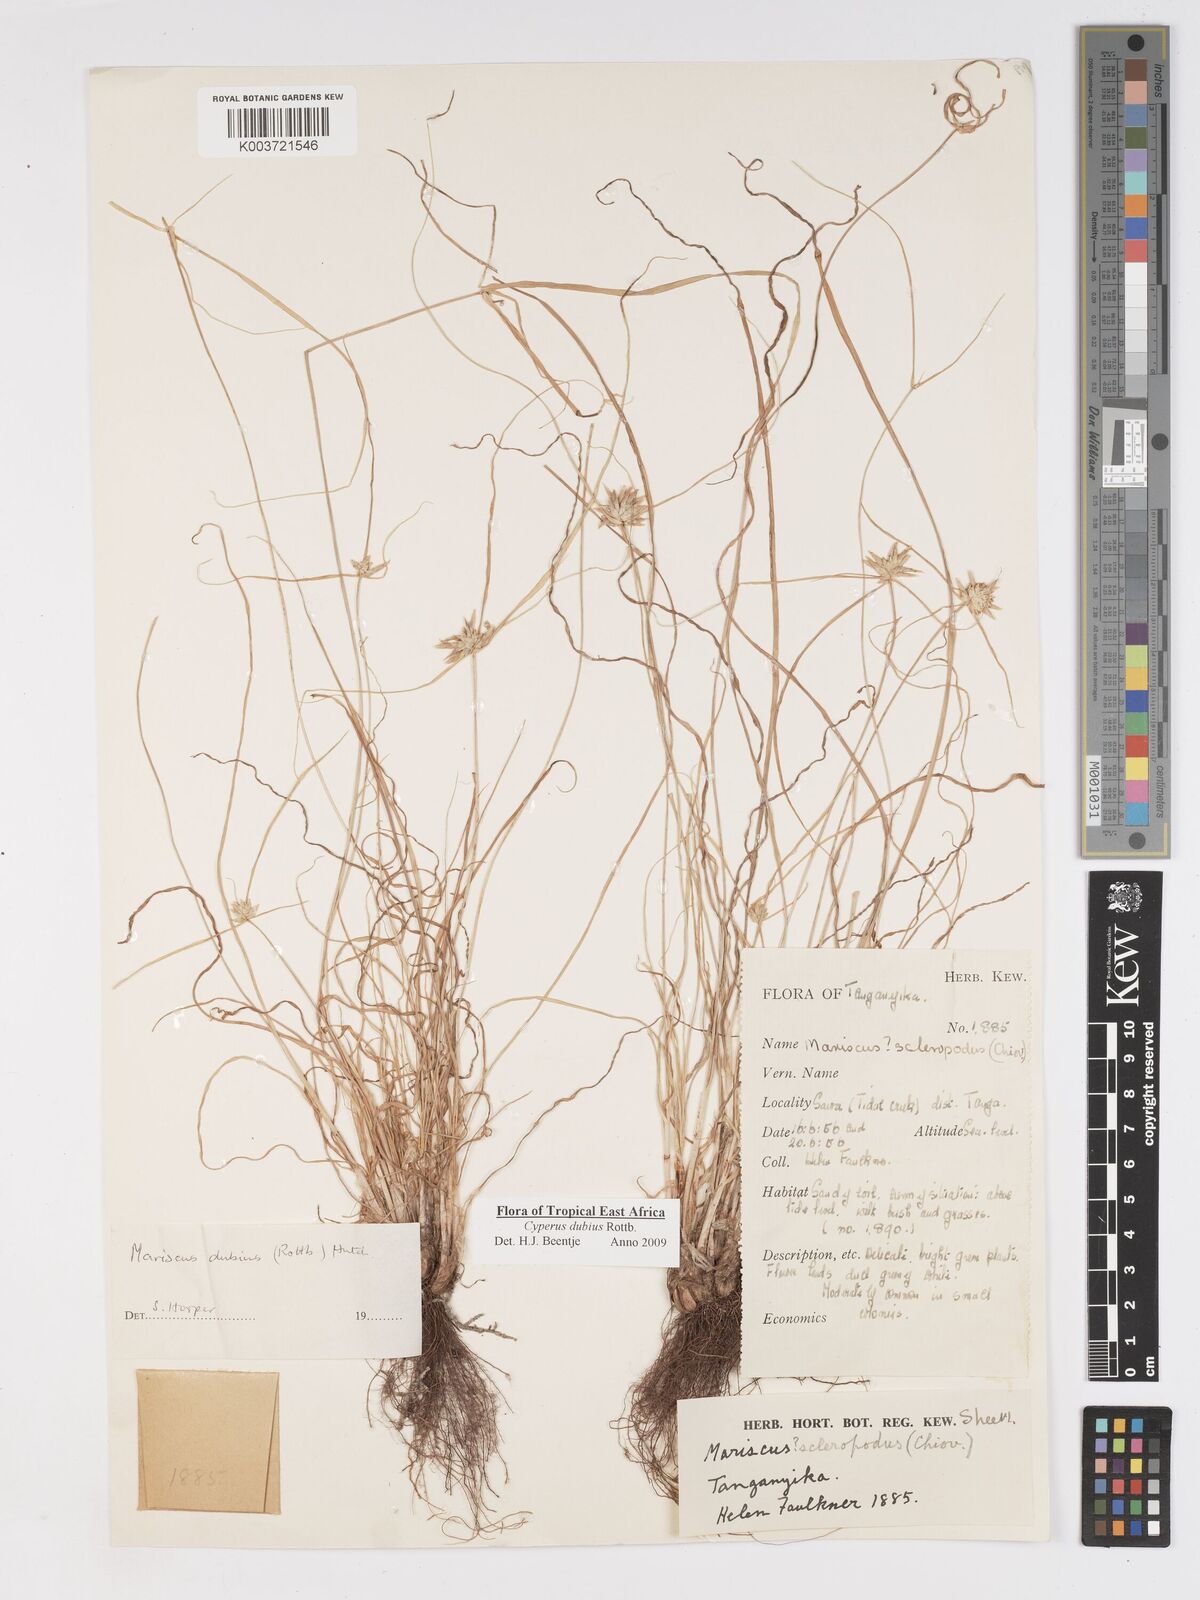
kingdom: Plantae
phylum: Tracheophyta
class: Liliopsida
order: Poales
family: Cyperaceae
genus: Cyperus
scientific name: Cyperus dubius
